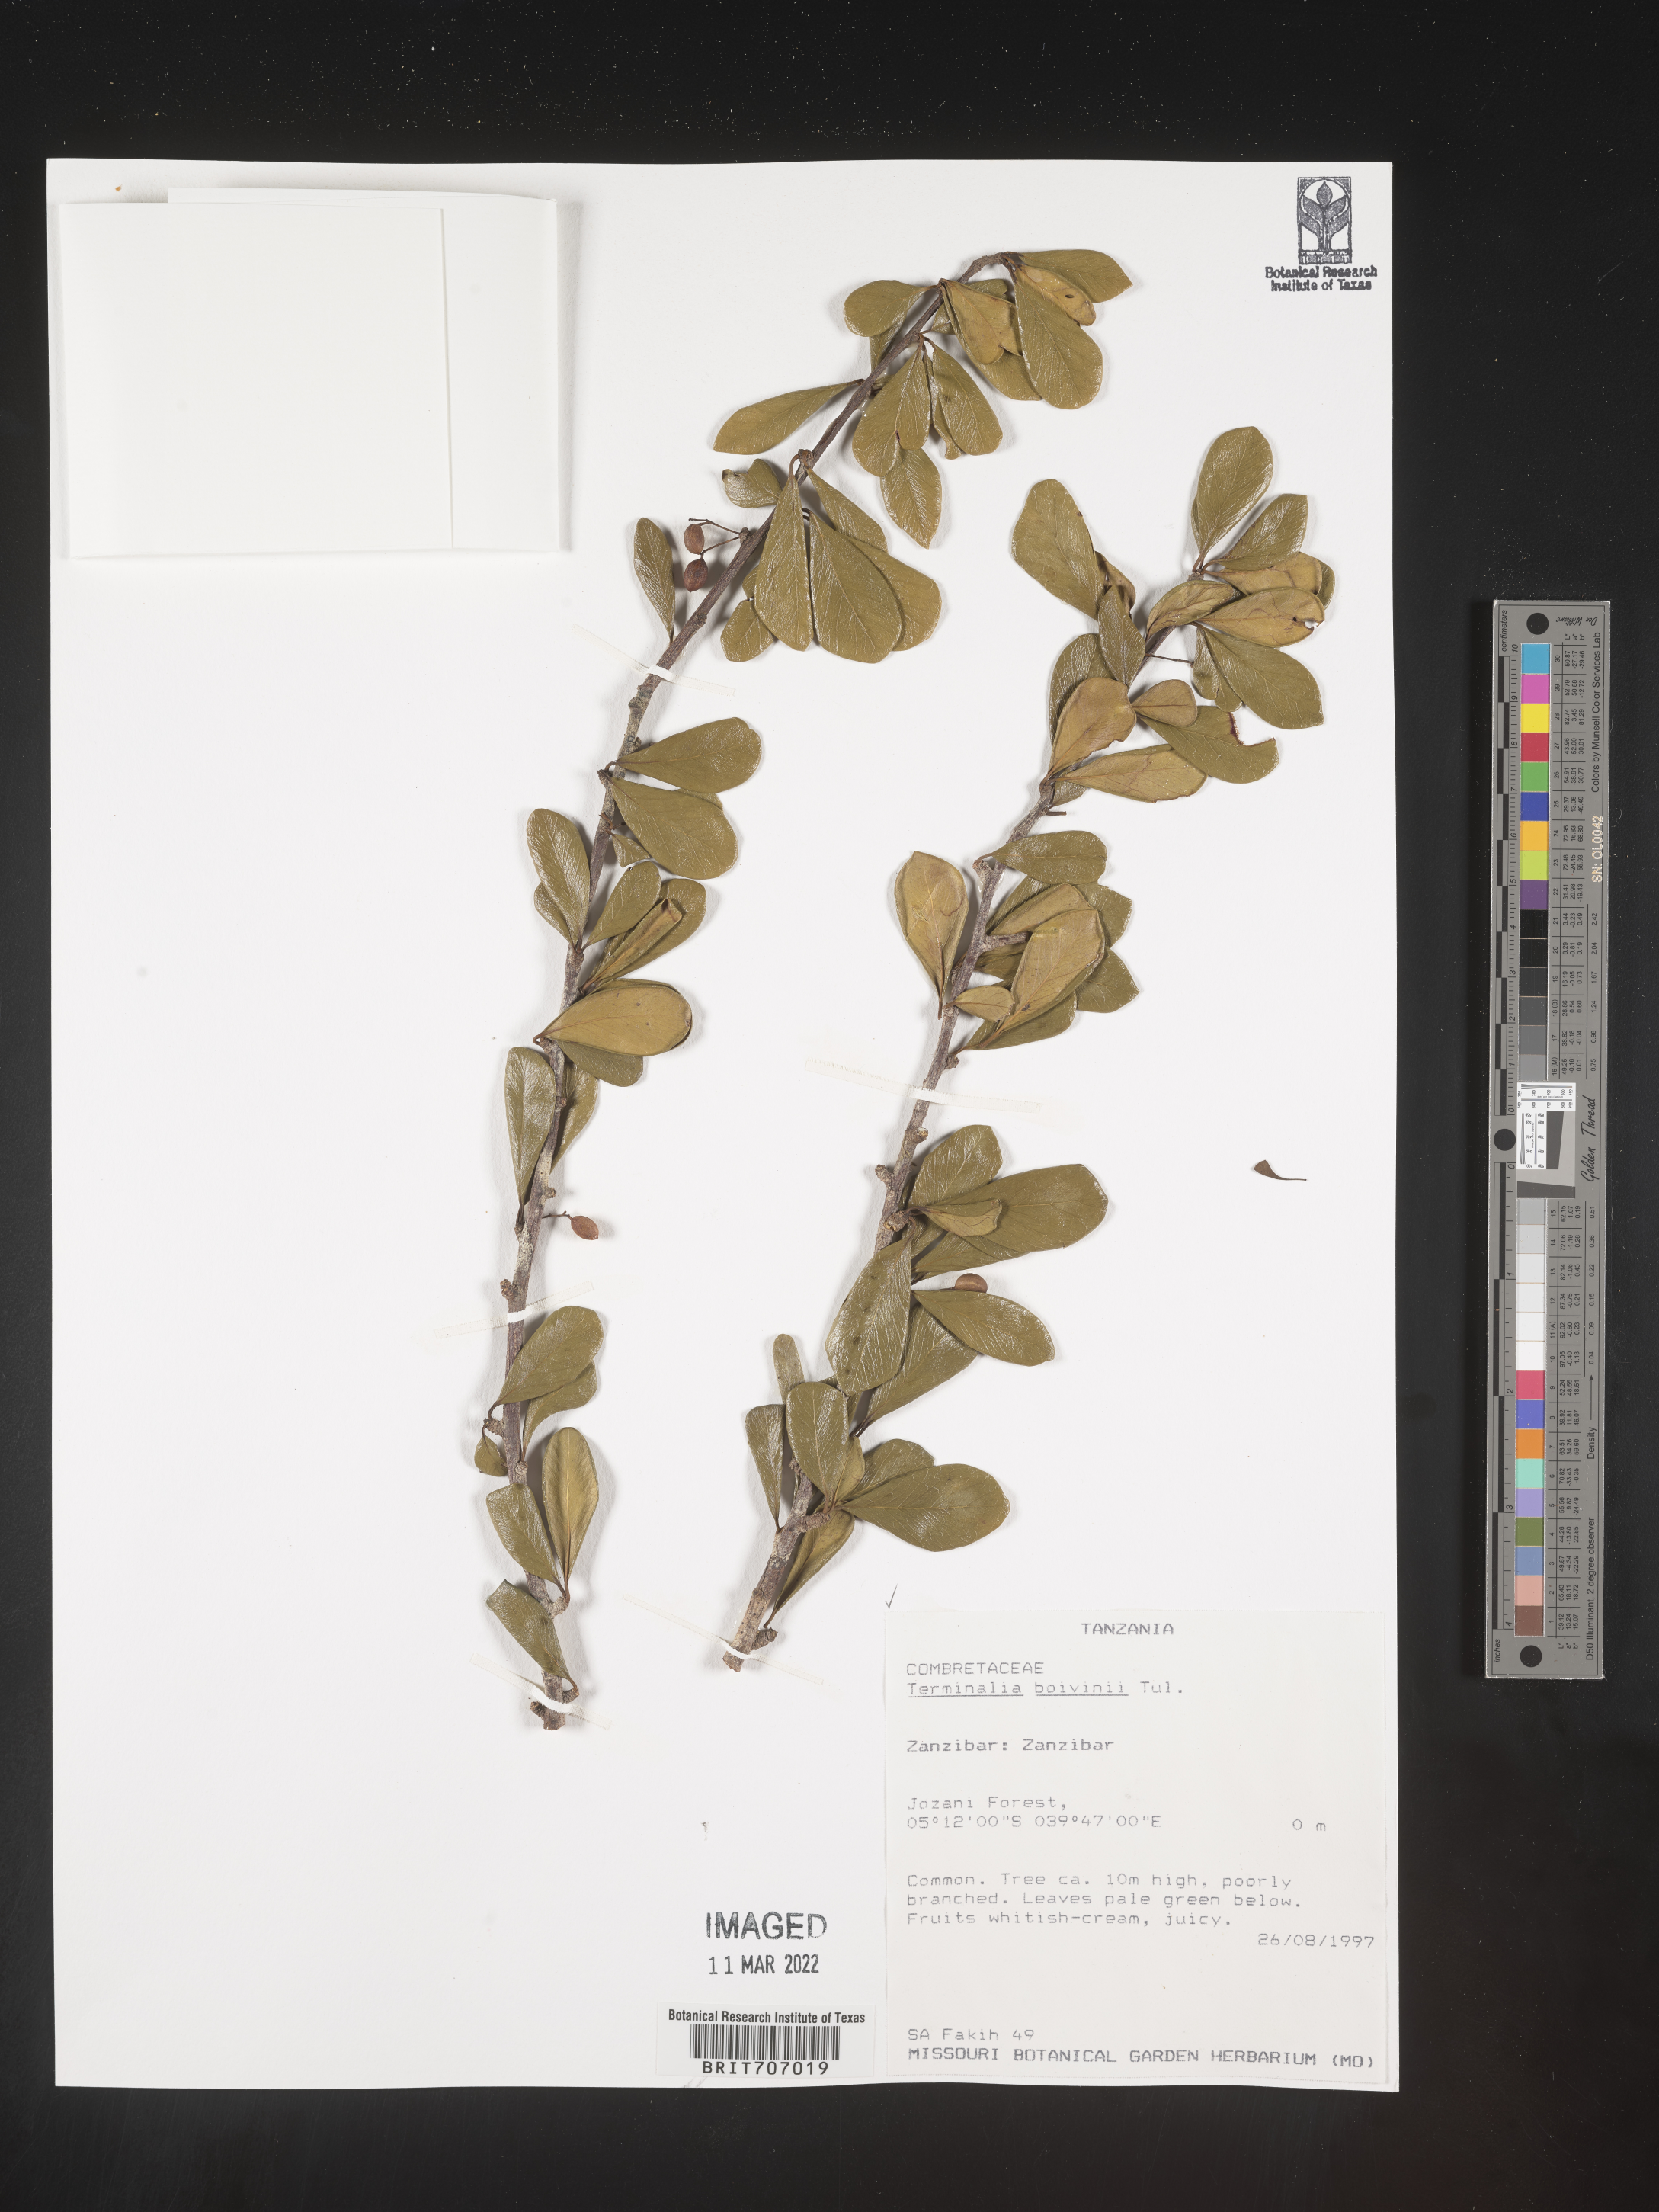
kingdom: Plantae
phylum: Tracheophyta
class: Magnoliopsida
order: Myrtales
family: Combretaceae
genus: Terminalia
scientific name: Terminalia
